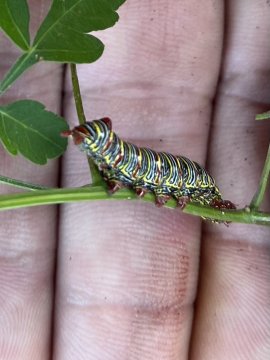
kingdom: Animalia
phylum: Arthropoda
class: Insecta
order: Lepidoptera
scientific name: Lepidoptera
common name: Butterflies
